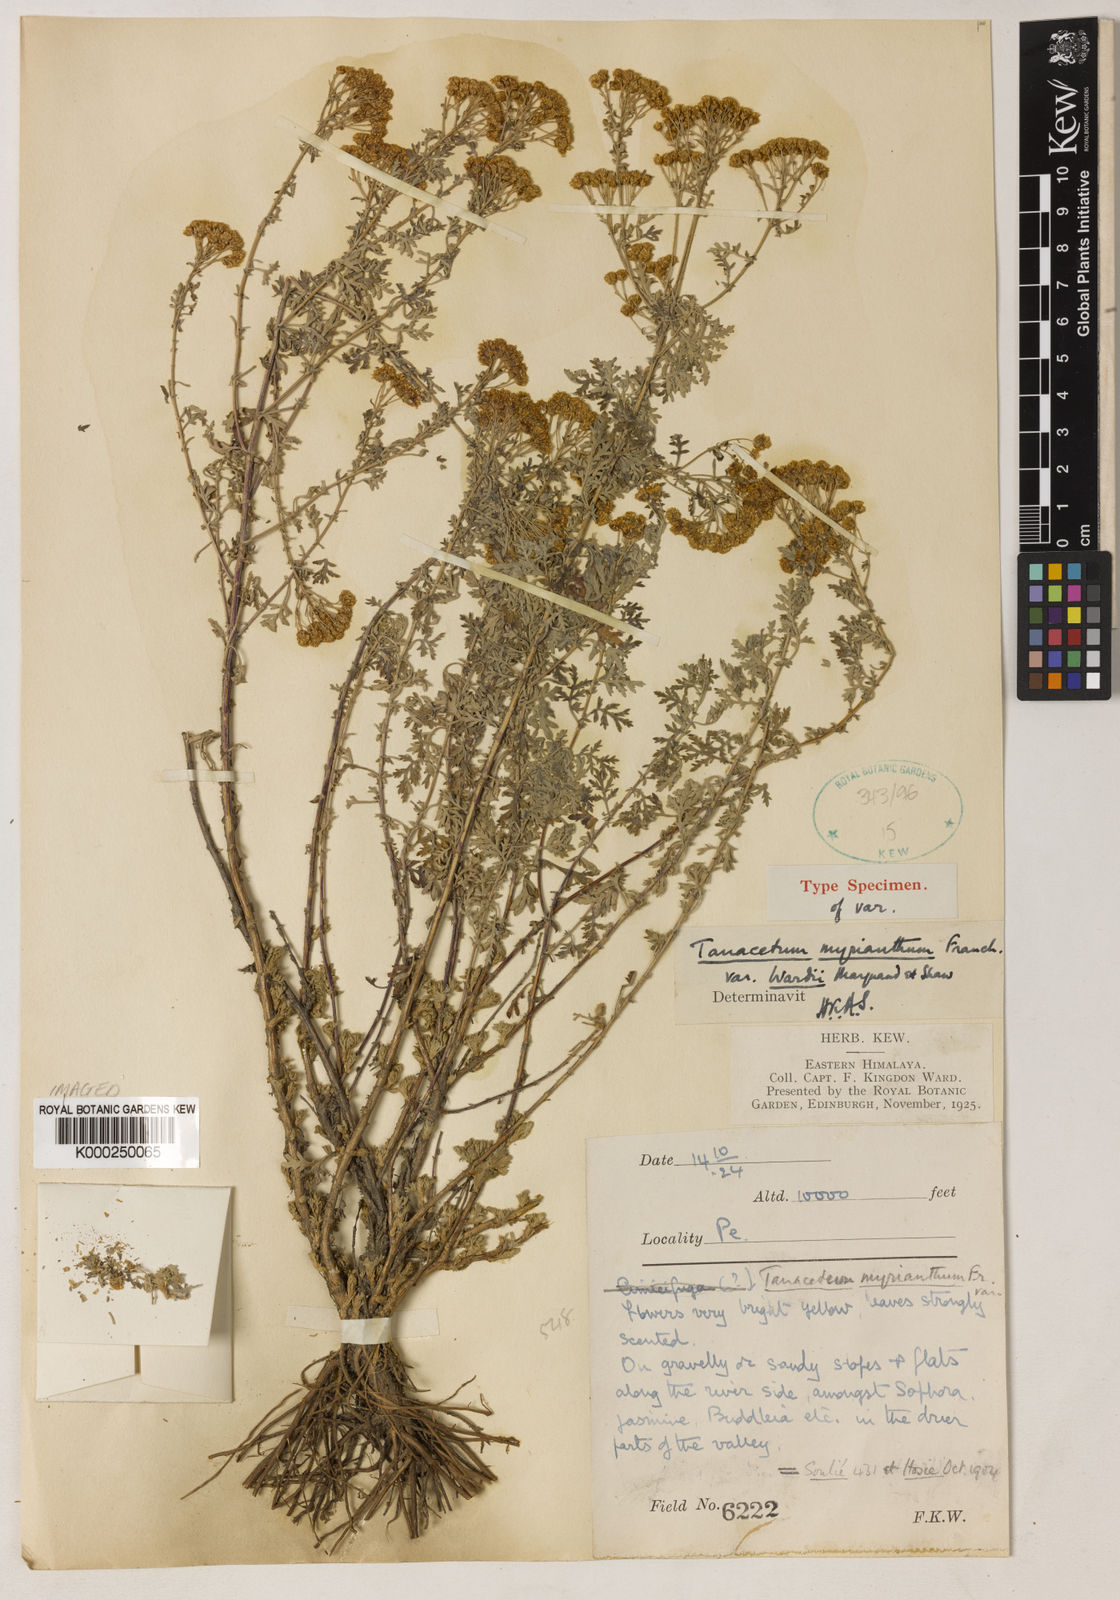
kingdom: Plantae
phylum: Tracheophyta
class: Magnoliopsida
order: Asterales
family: Asteraceae
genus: Ajania
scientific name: Ajania myriantha
